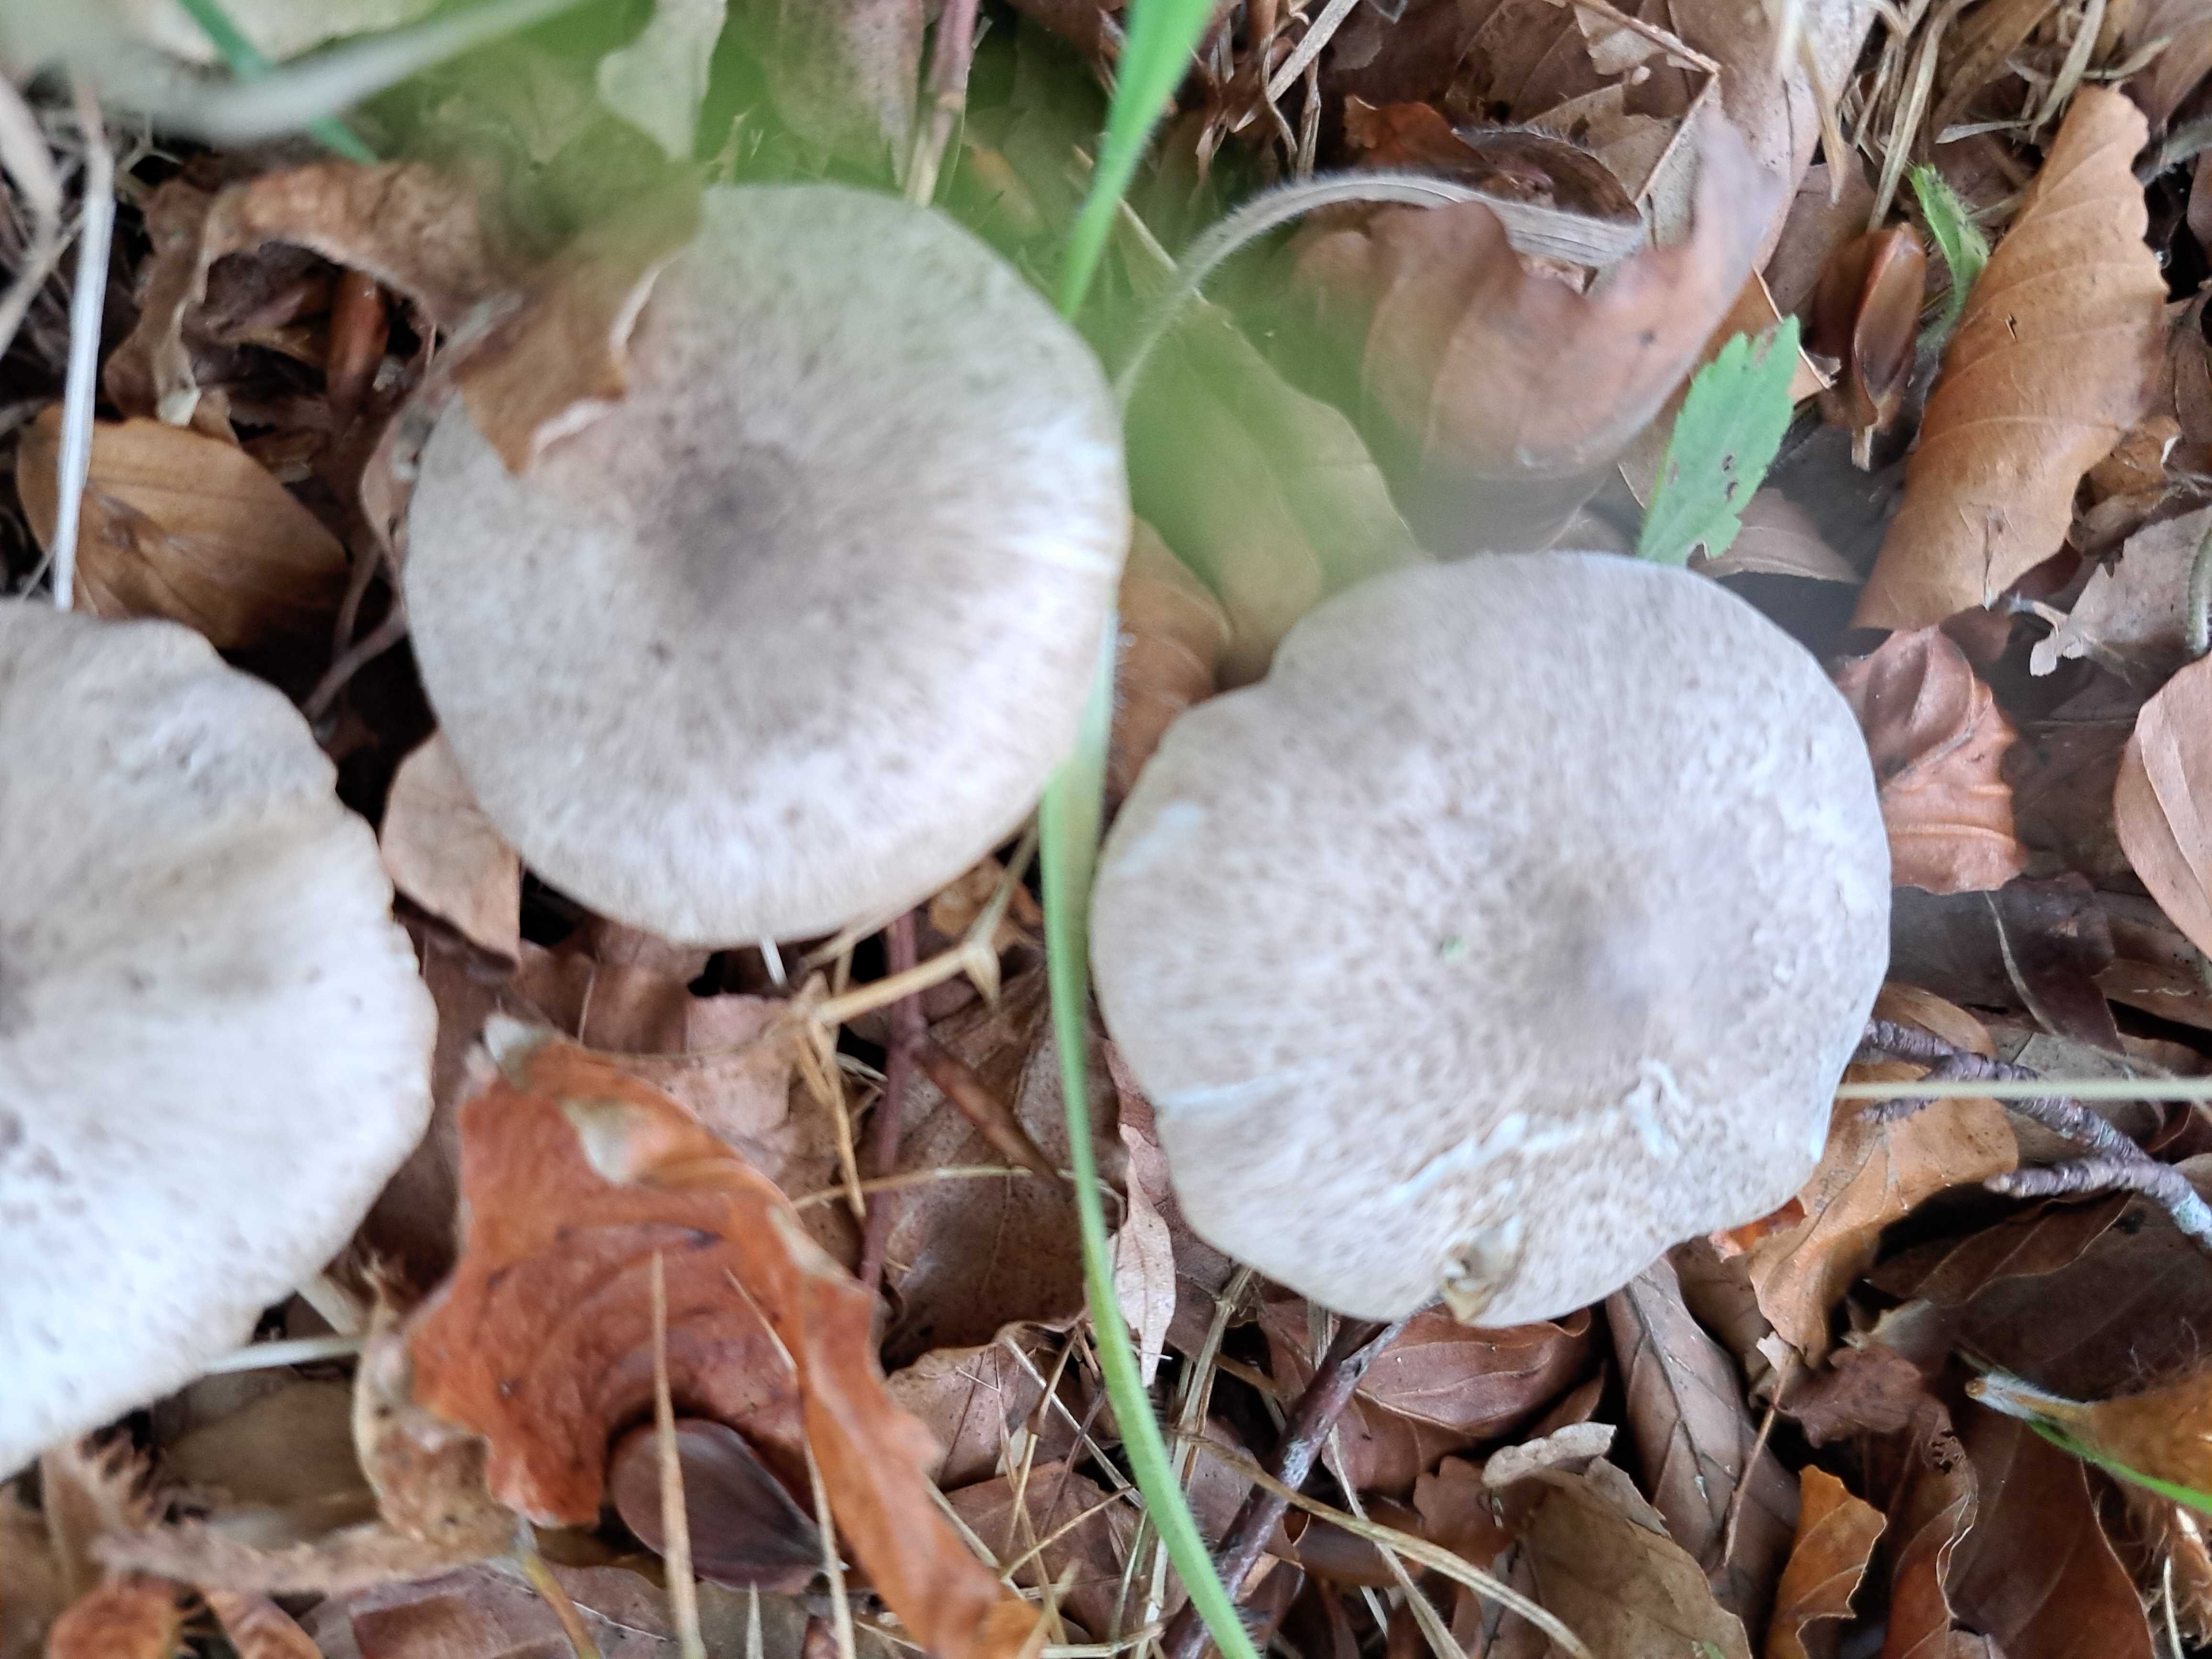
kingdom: Fungi
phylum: Basidiomycota
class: Agaricomycetes
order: Agaricales
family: Tricholomataceae
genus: Tricholoma
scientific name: Tricholoma
